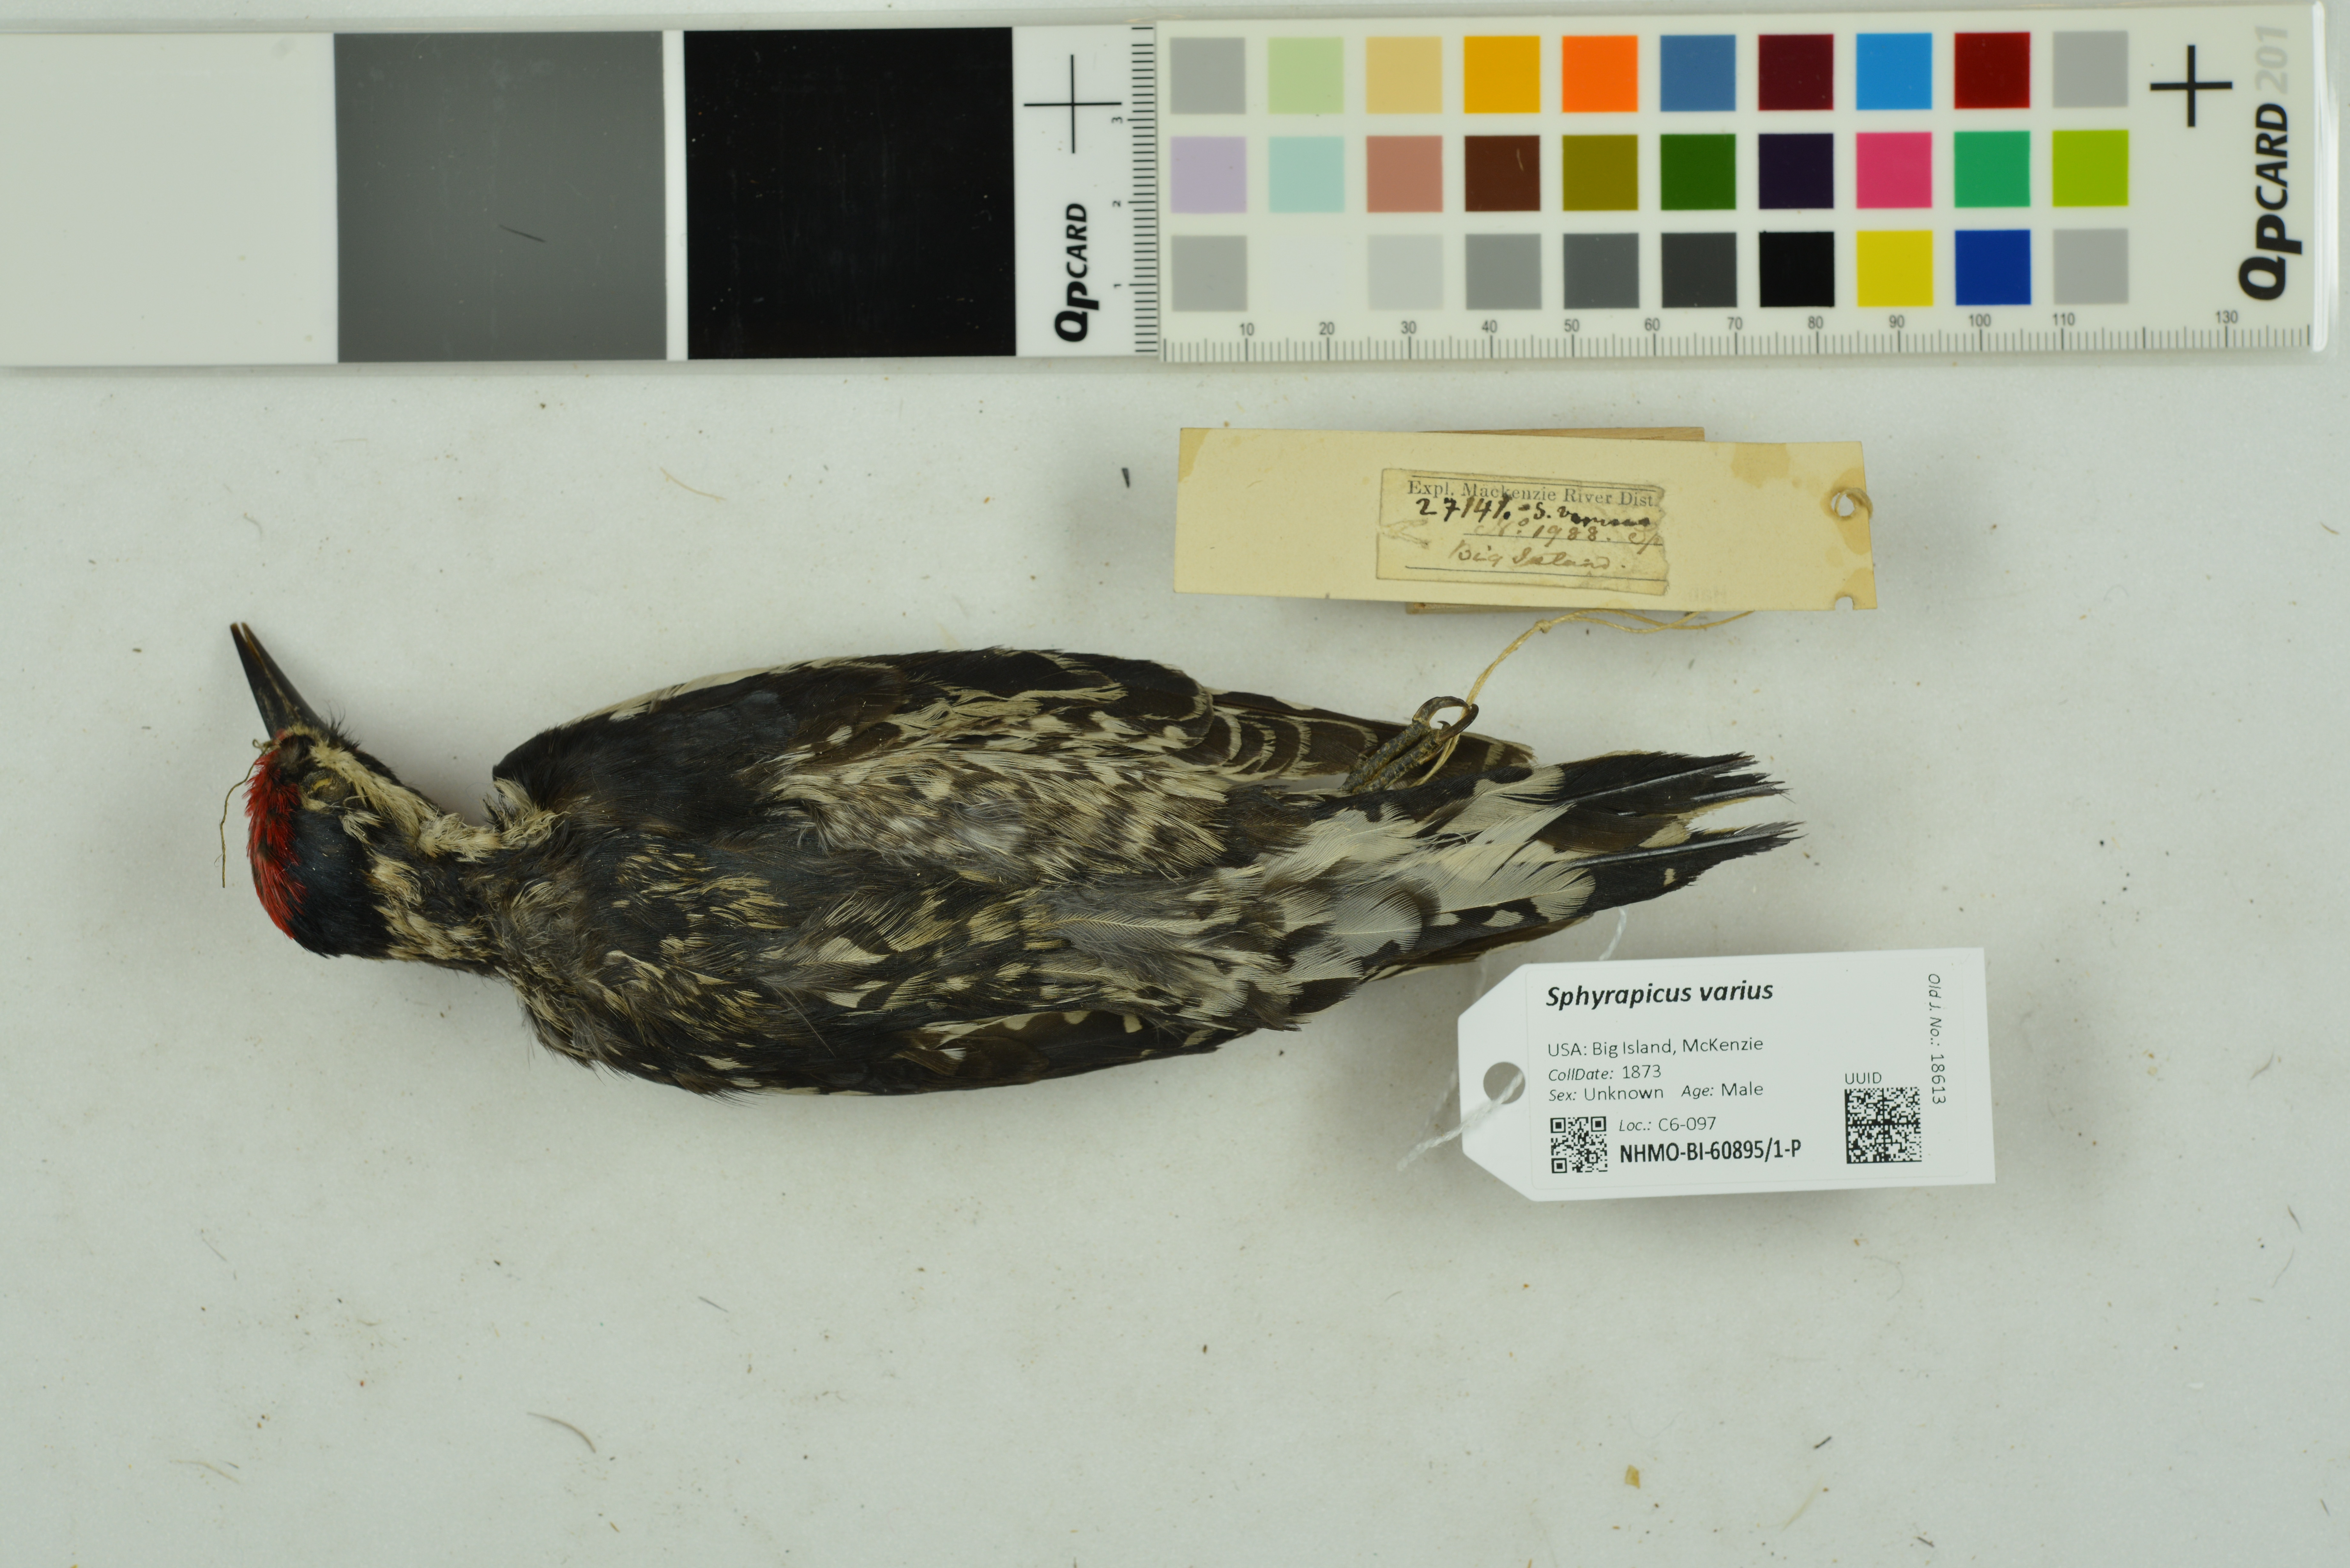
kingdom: Animalia
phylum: Chordata
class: Aves
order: Piciformes
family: Picidae
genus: Sphyrapicus
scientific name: Sphyrapicus varius
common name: Yellow-bellied sapsucker
